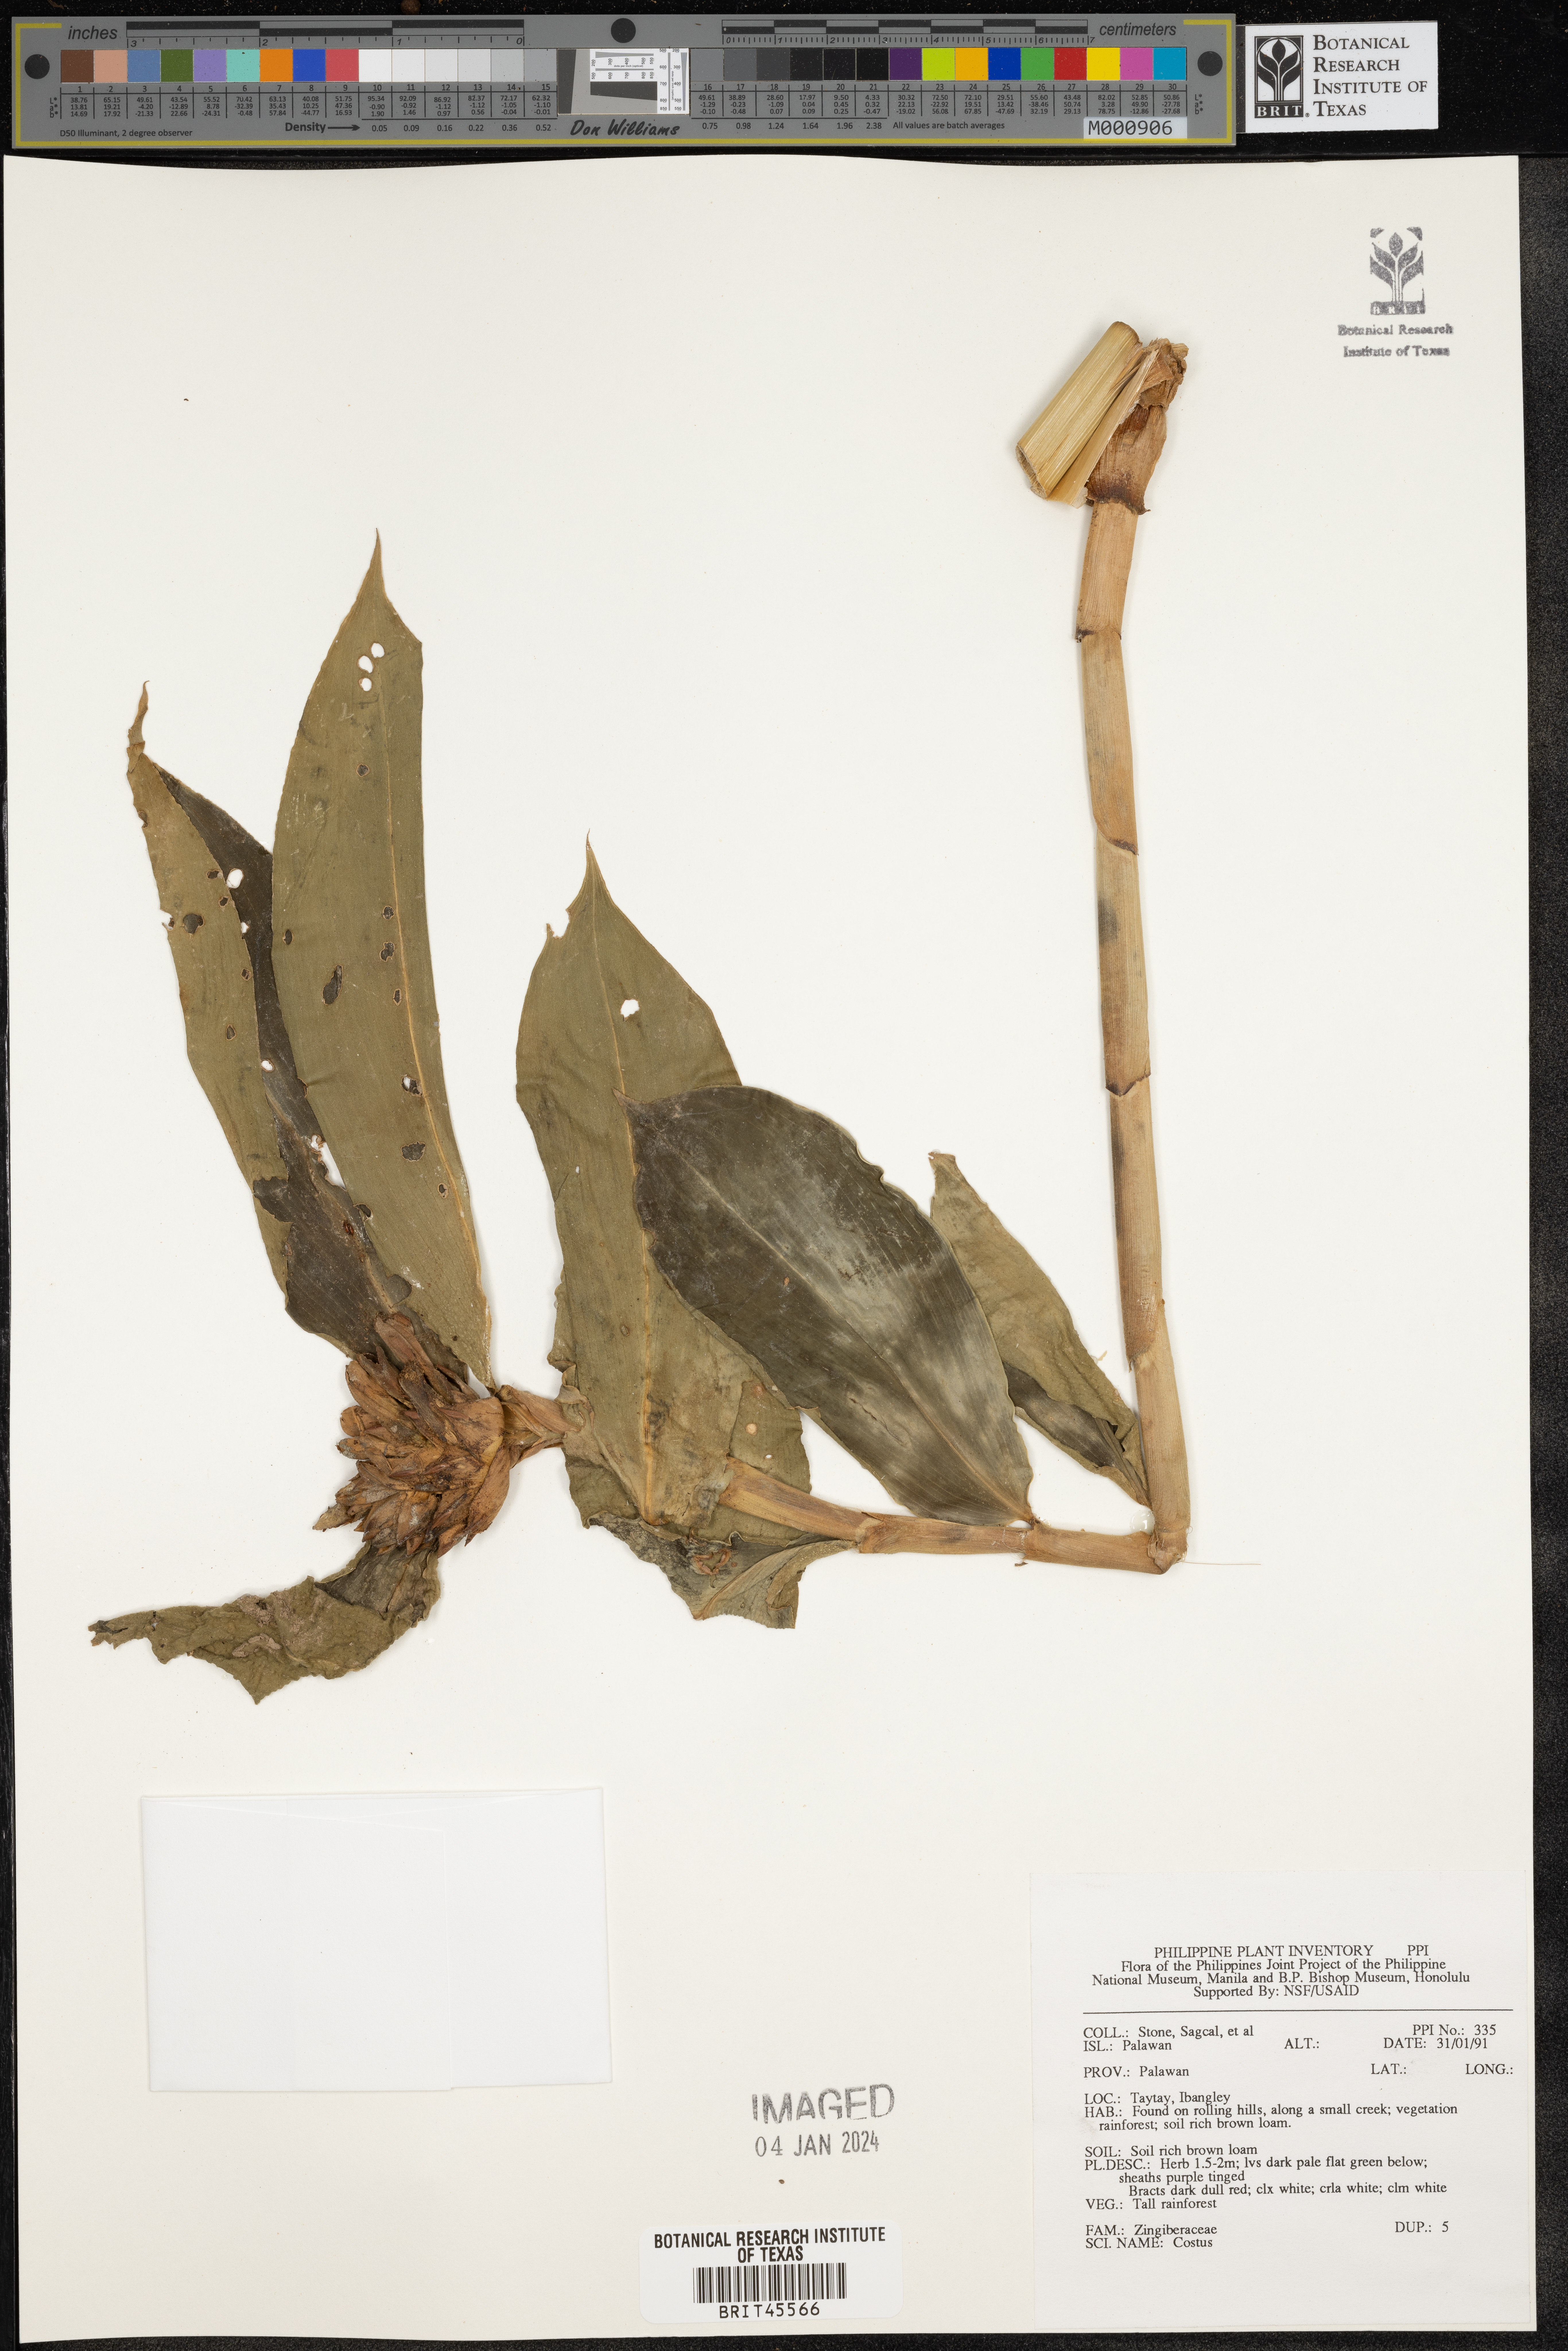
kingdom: Plantae
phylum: Tracheophyta
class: Liliopsida
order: Zingiberales
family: Costaceae
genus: Costus
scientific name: Costus
